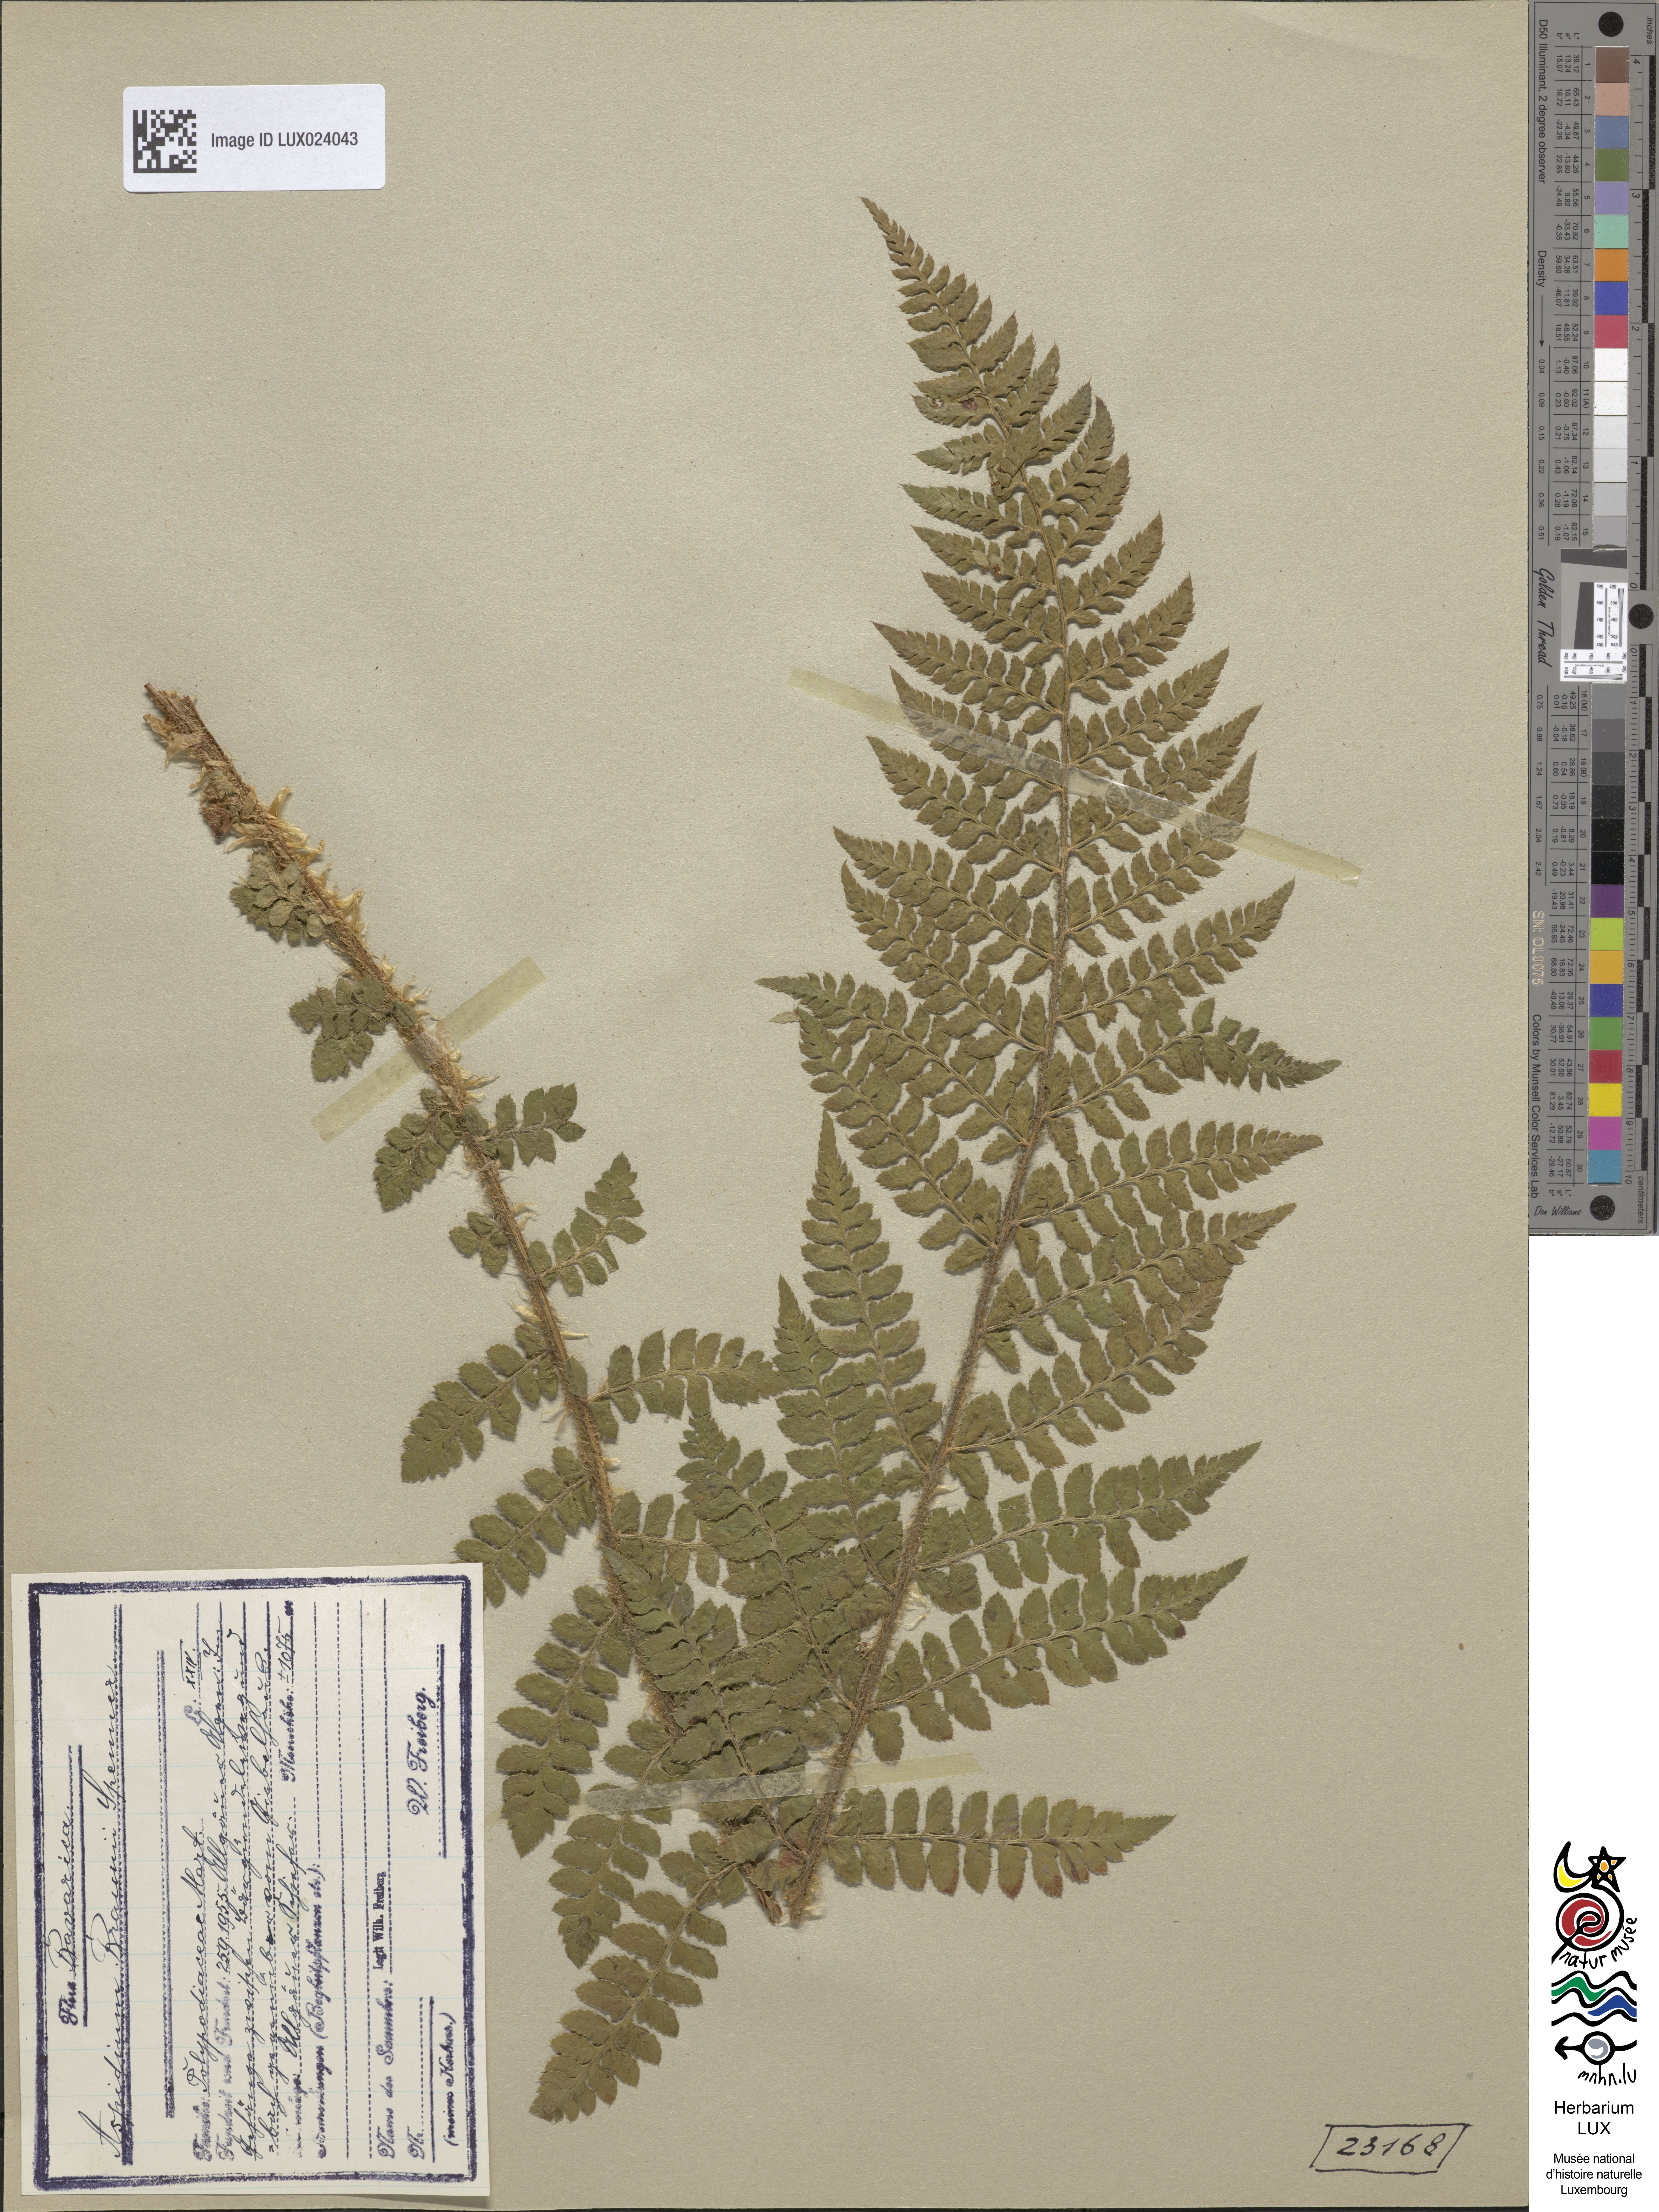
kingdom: Plantae
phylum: Tracheophyta
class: Polypodiopsida
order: Polypodiales
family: Dryopteridaceae
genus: Polystichum
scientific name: Polystichum braunii
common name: Braun's holly fern
